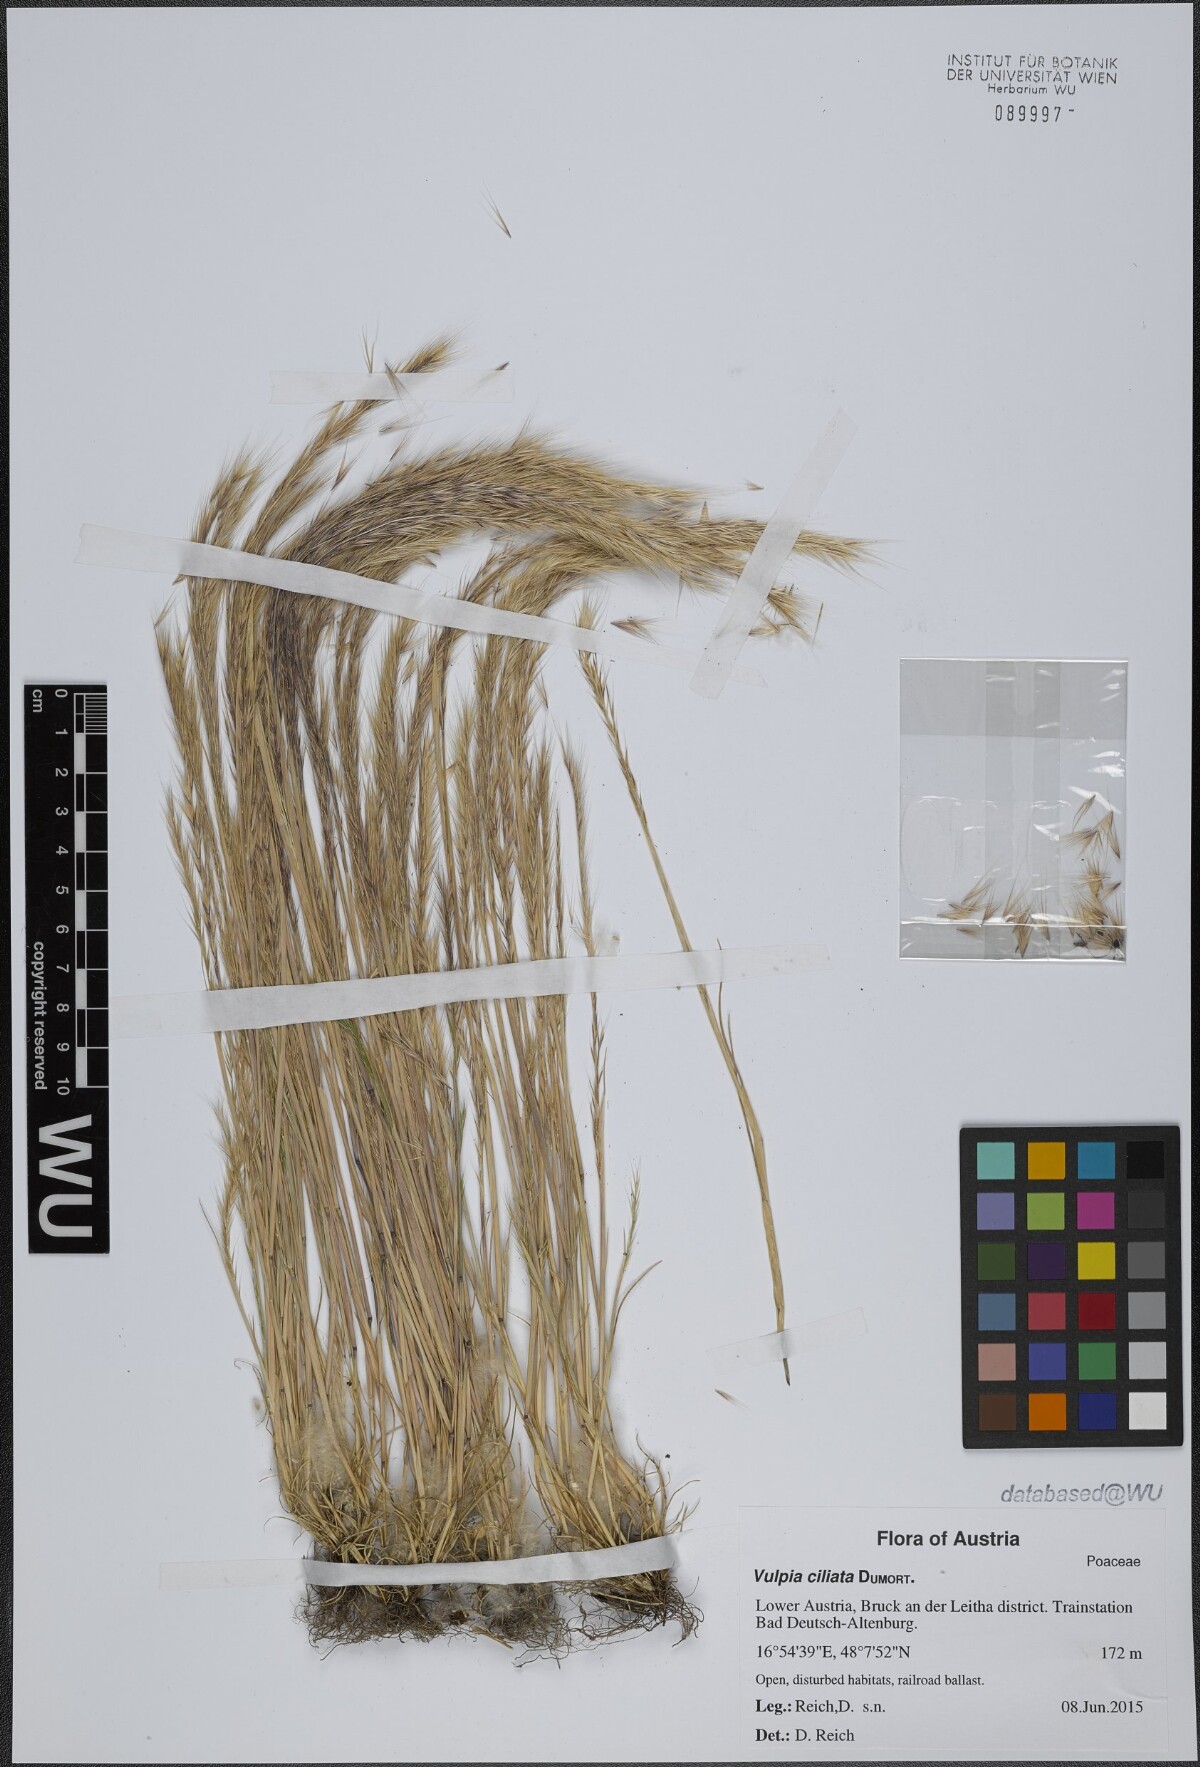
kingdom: Plantae
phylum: Tracheophyta
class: Liliopsida
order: Poales
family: Poaceae
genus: Festuca
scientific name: Festuca ambigua
